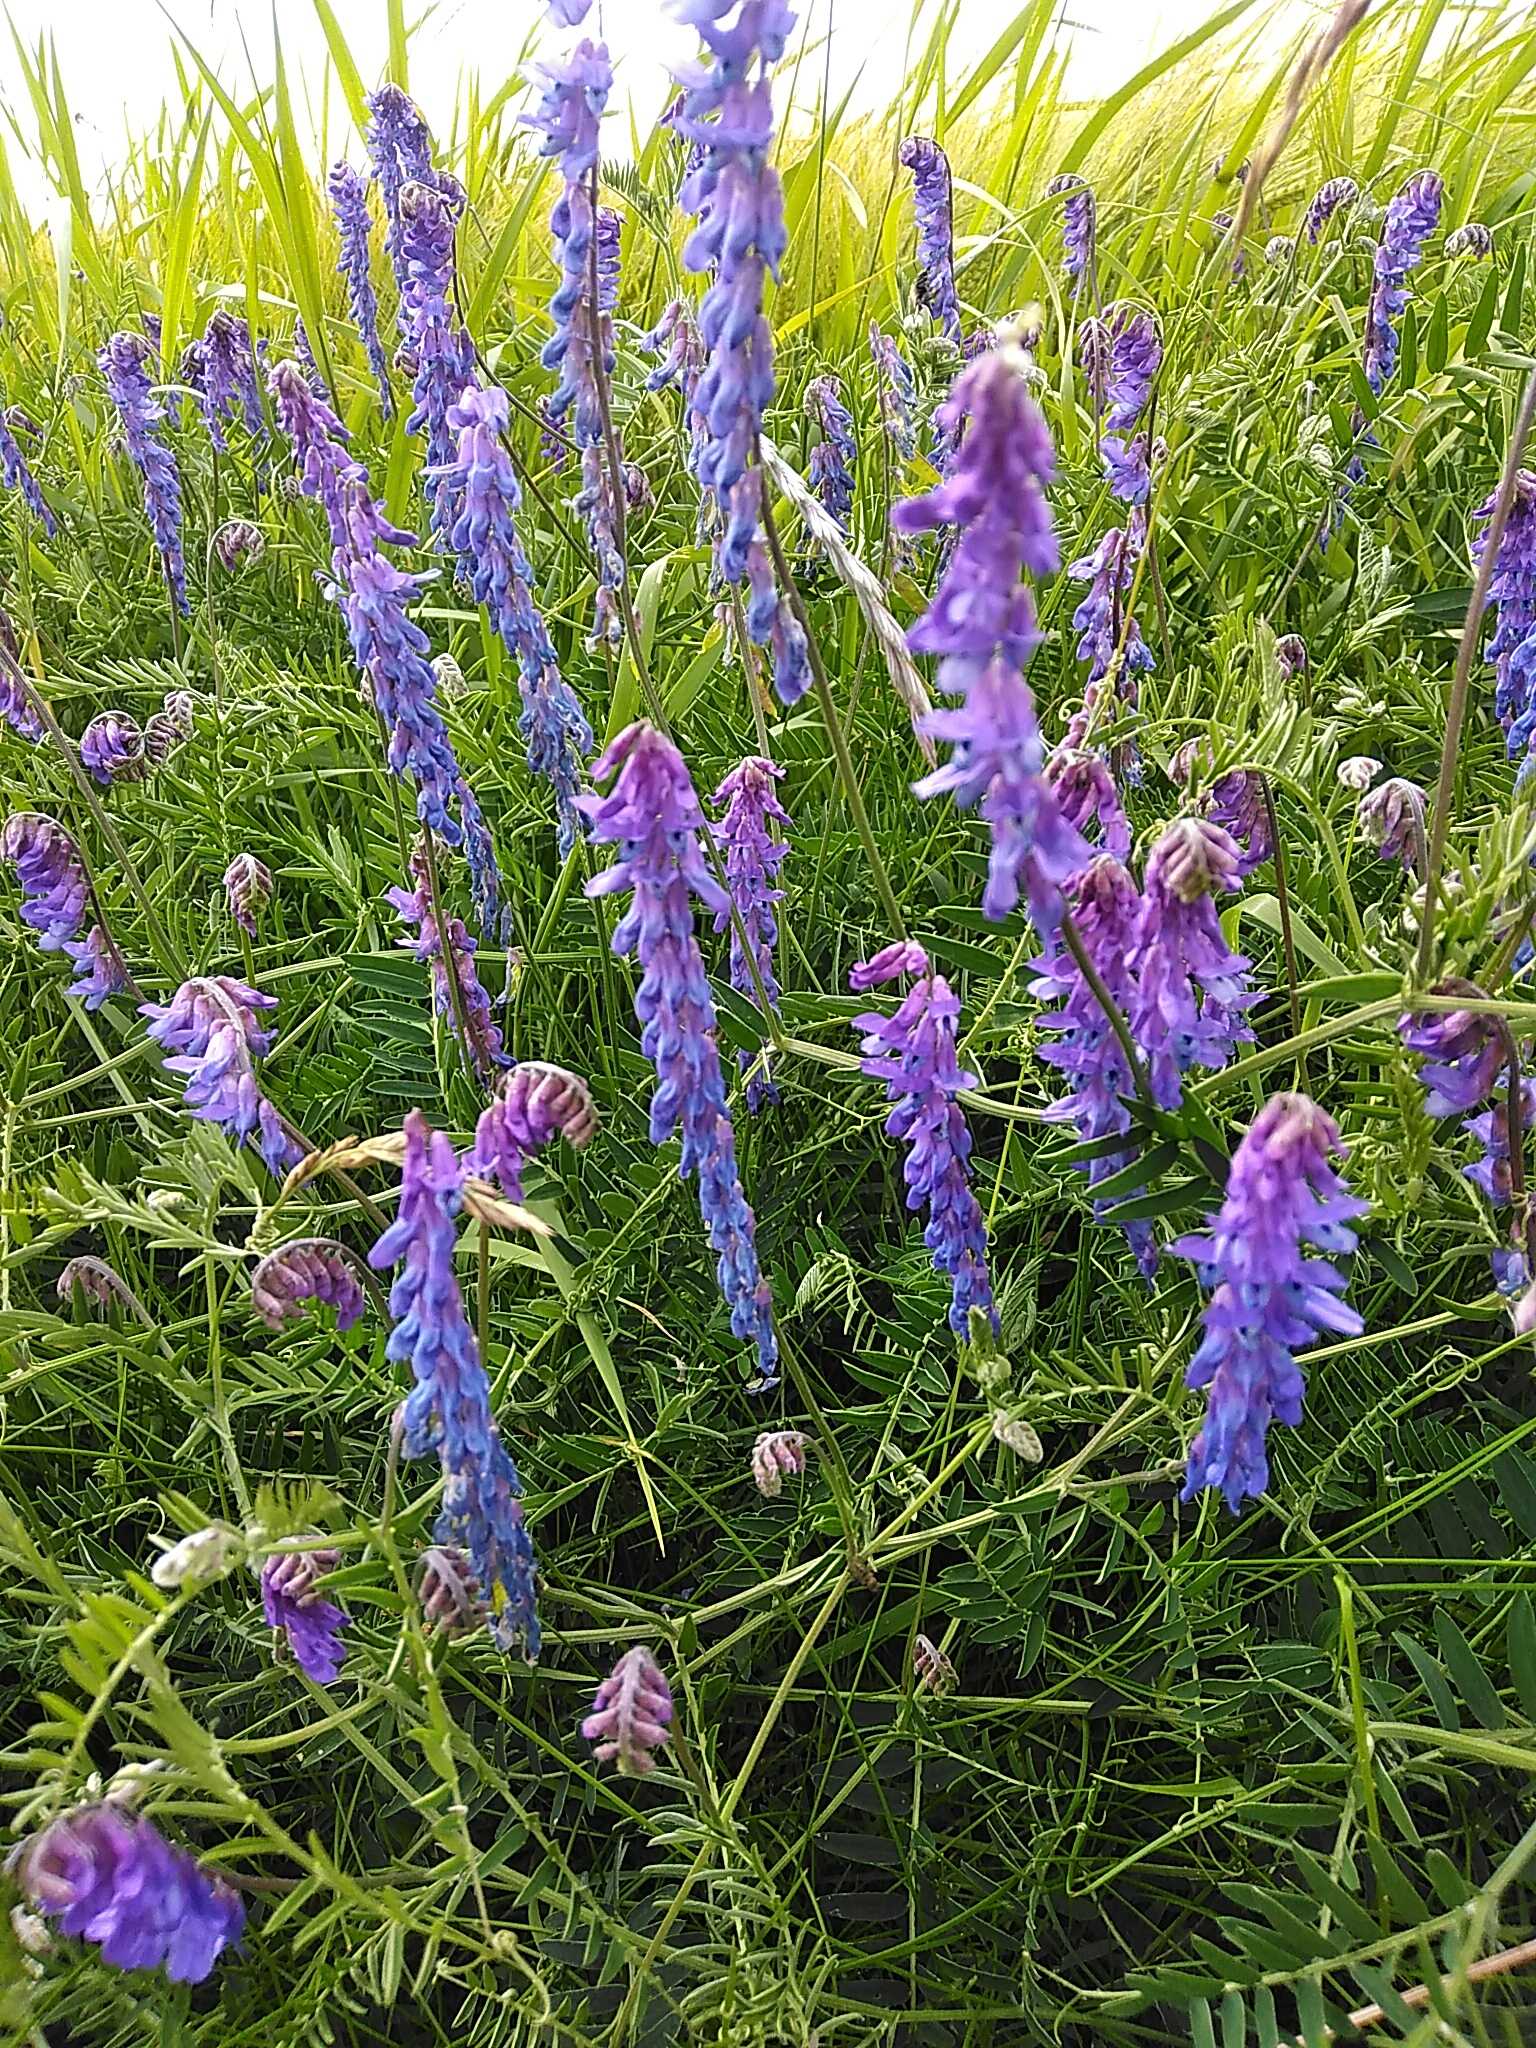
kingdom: Plantae
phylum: Tracheophyta
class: Magnoliopsida
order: Fabales
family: Fabaceae
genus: Vicia
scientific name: Vicia cracca
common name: Muse-vikke
